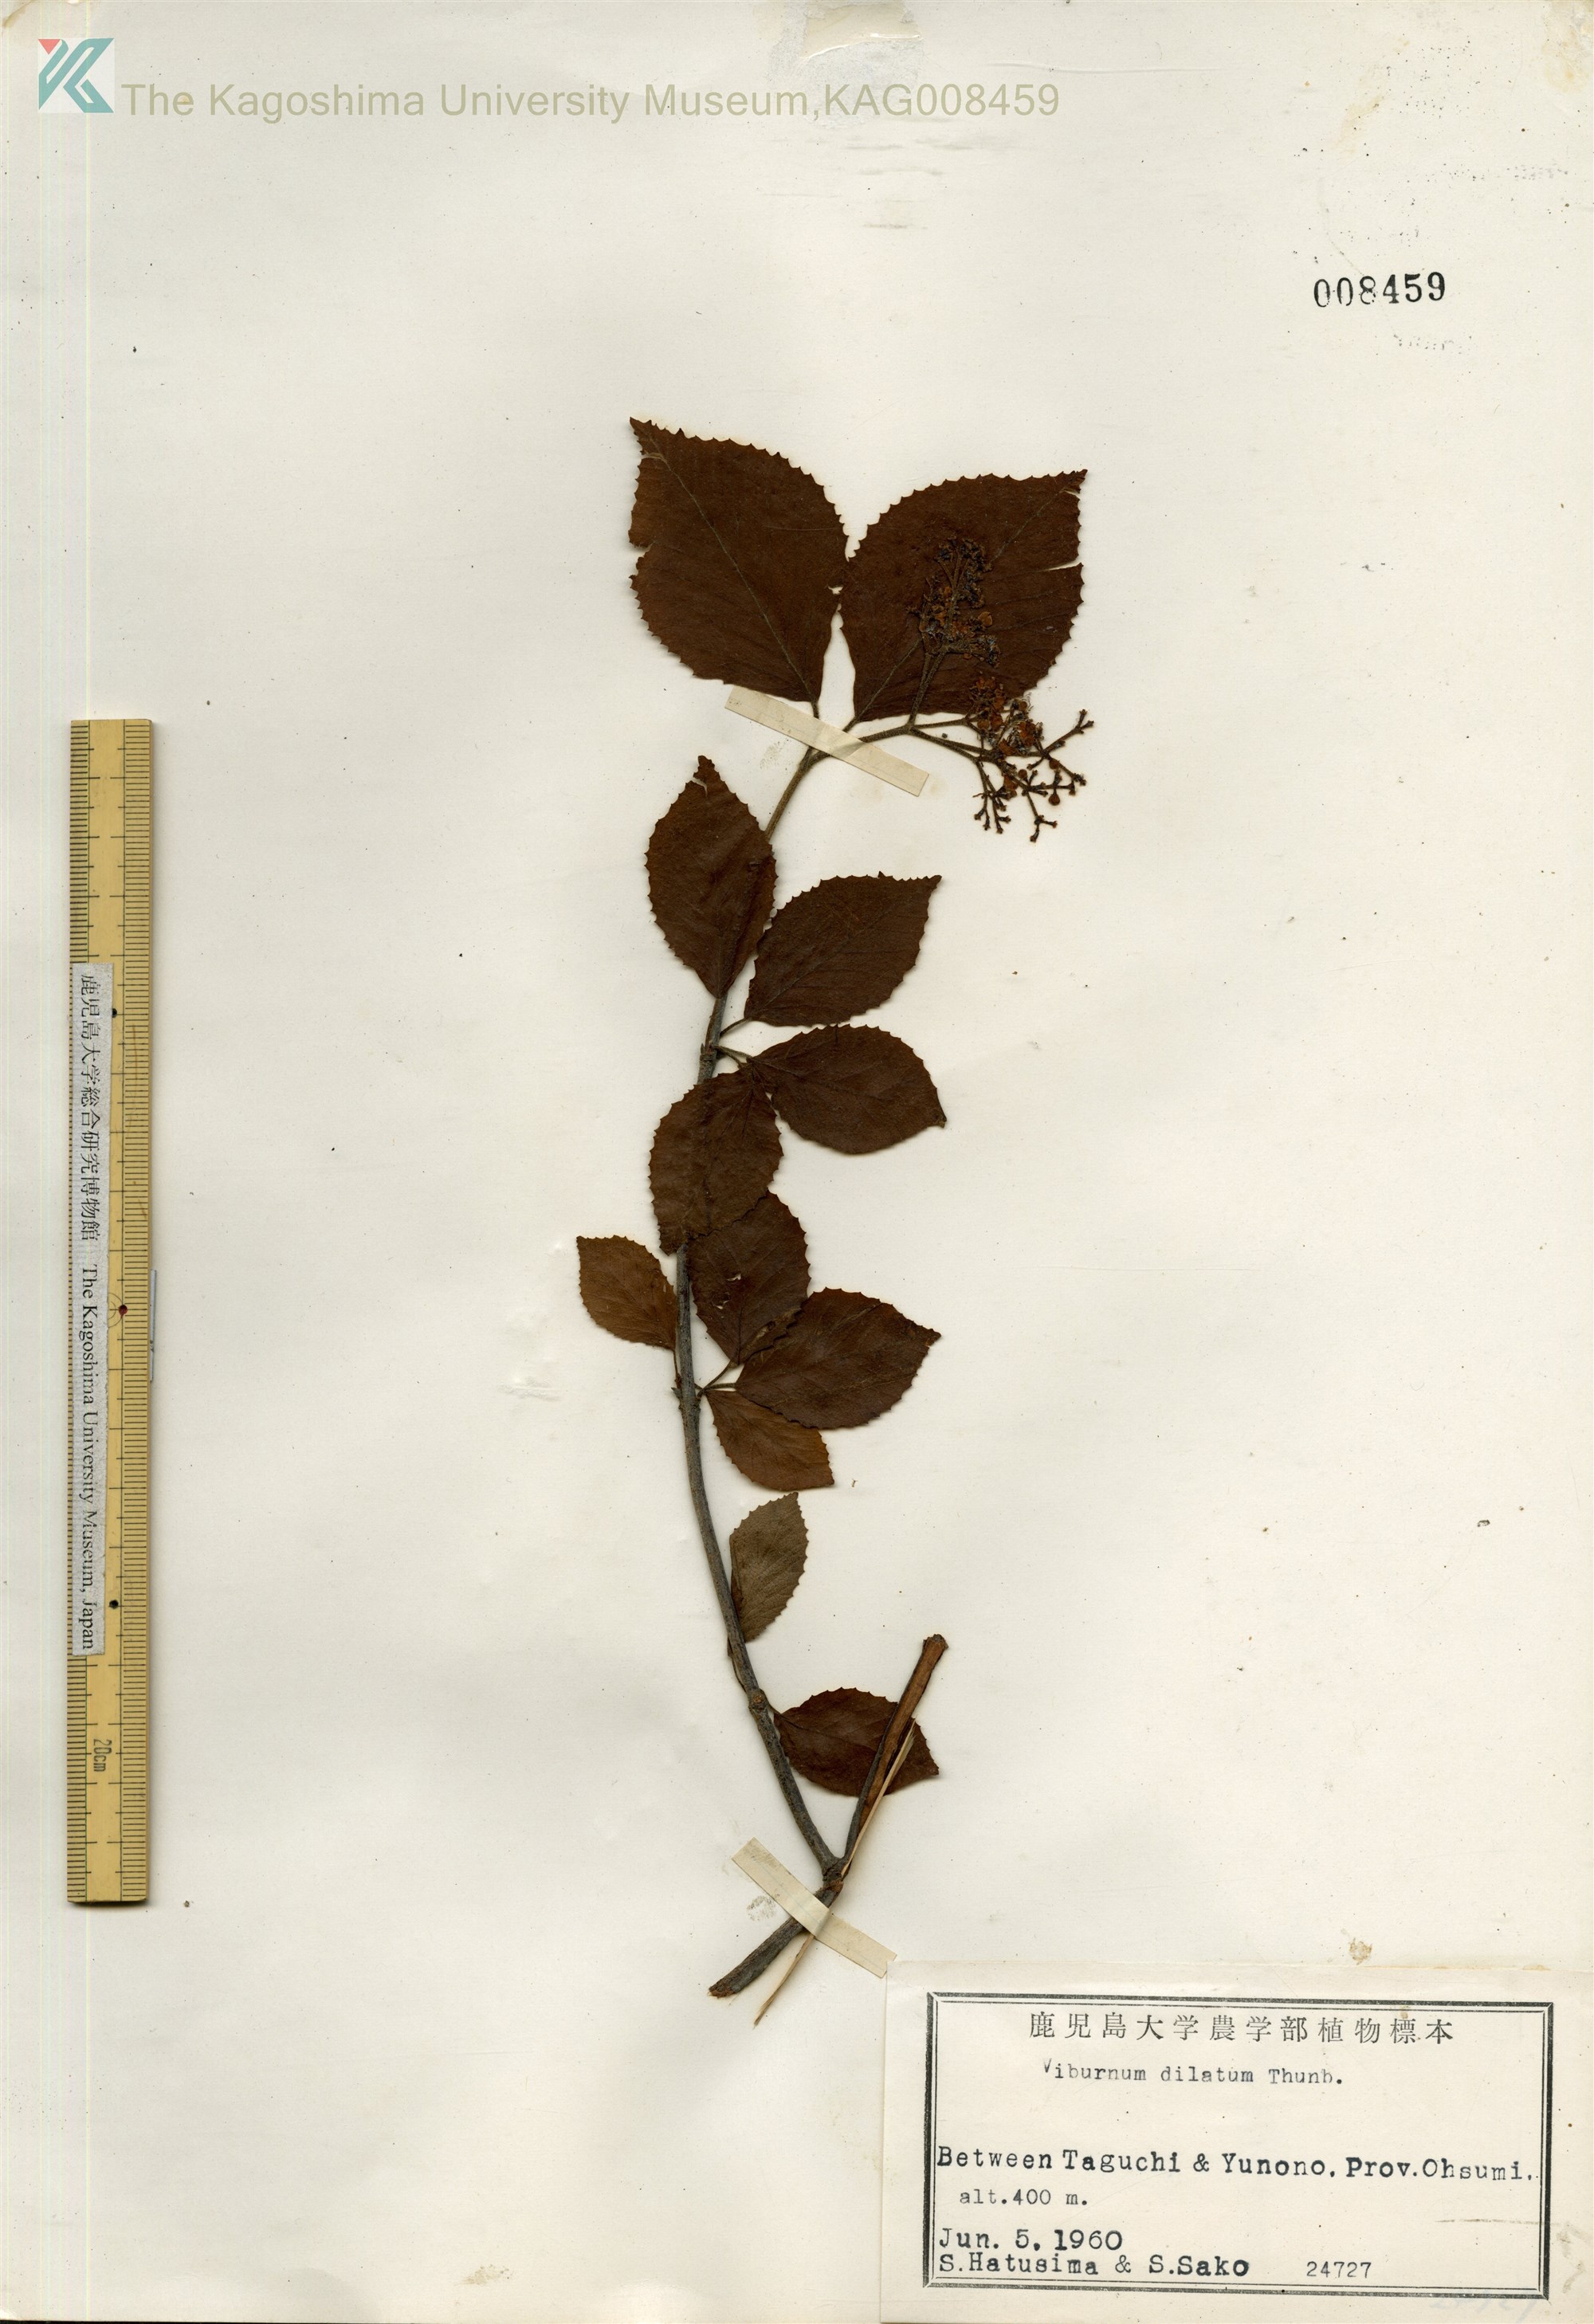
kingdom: Plantae
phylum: Tracheophyta
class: Magnoliopsida
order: Dipsacales
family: Viburnaceae
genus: Viburnum
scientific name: Viburnum dilatatum
